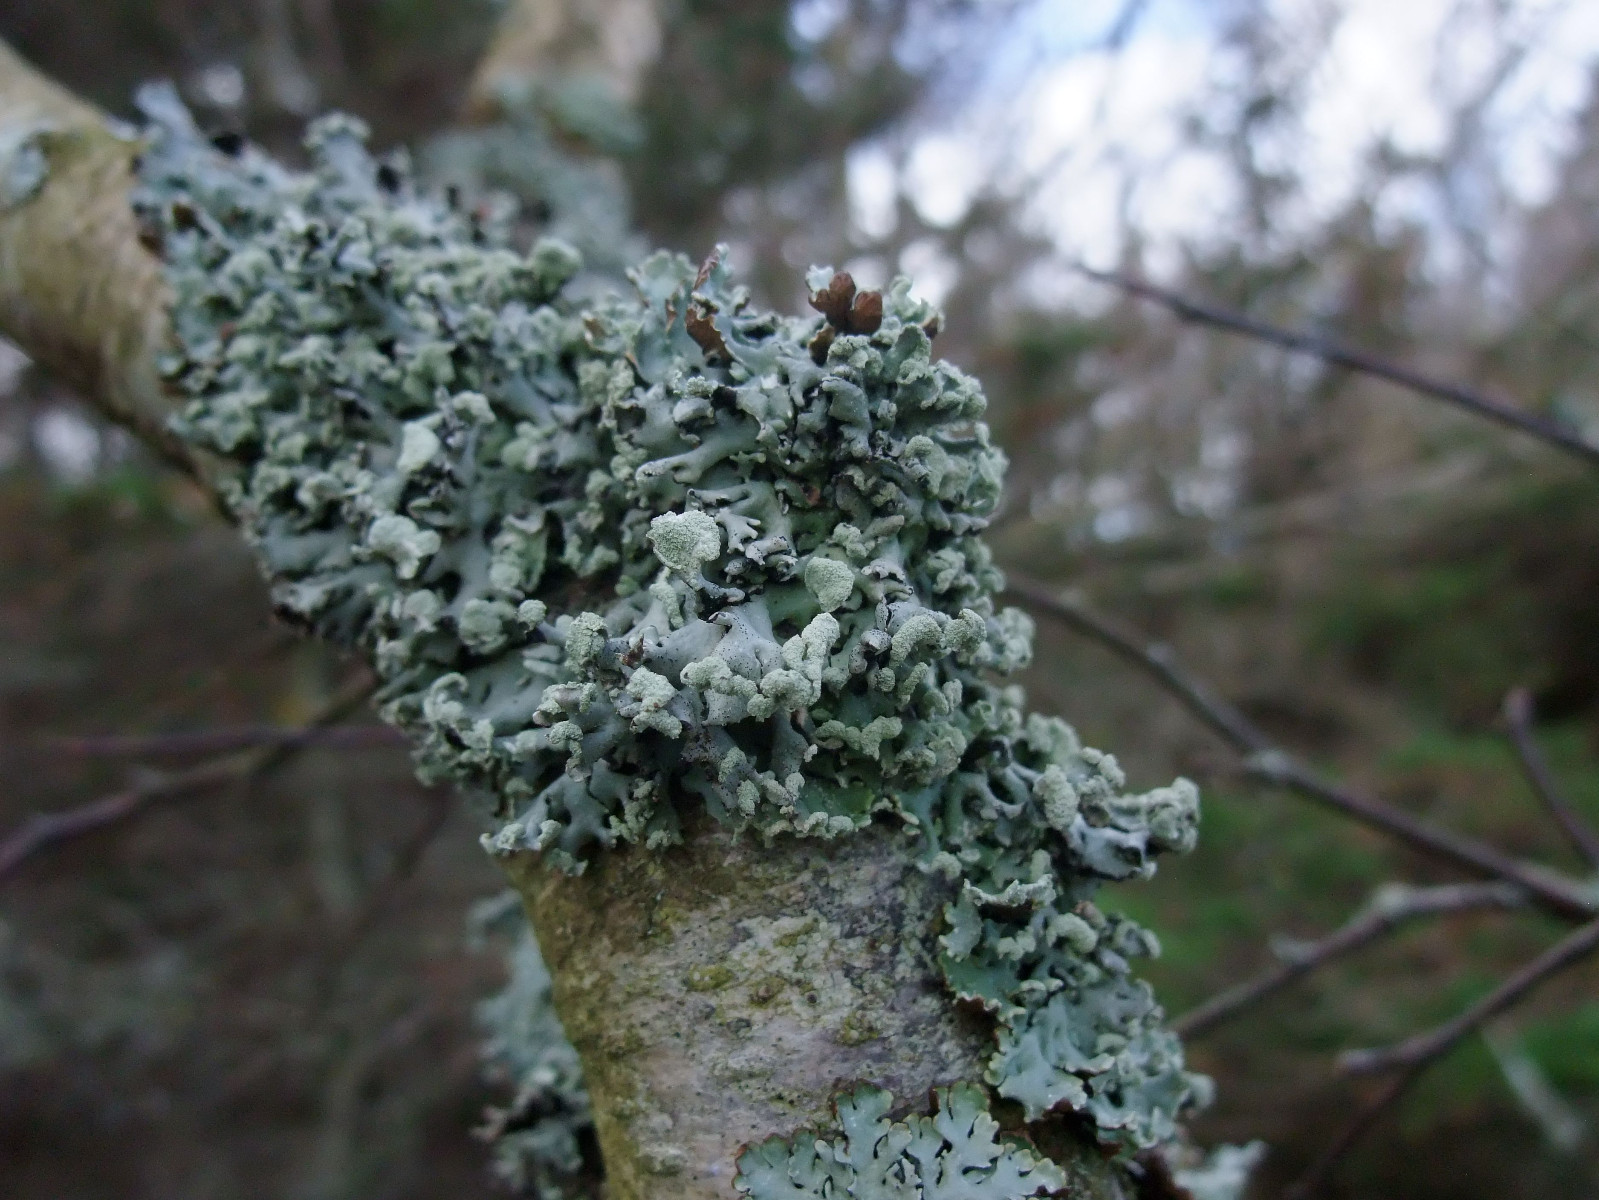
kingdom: Fungi
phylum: Ascomycota
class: Lecanoromycetes
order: Lecanorales
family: Parmeliaceae
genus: Hypogymnia
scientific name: Hypogymnia physodes
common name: almindelig kvistlav
